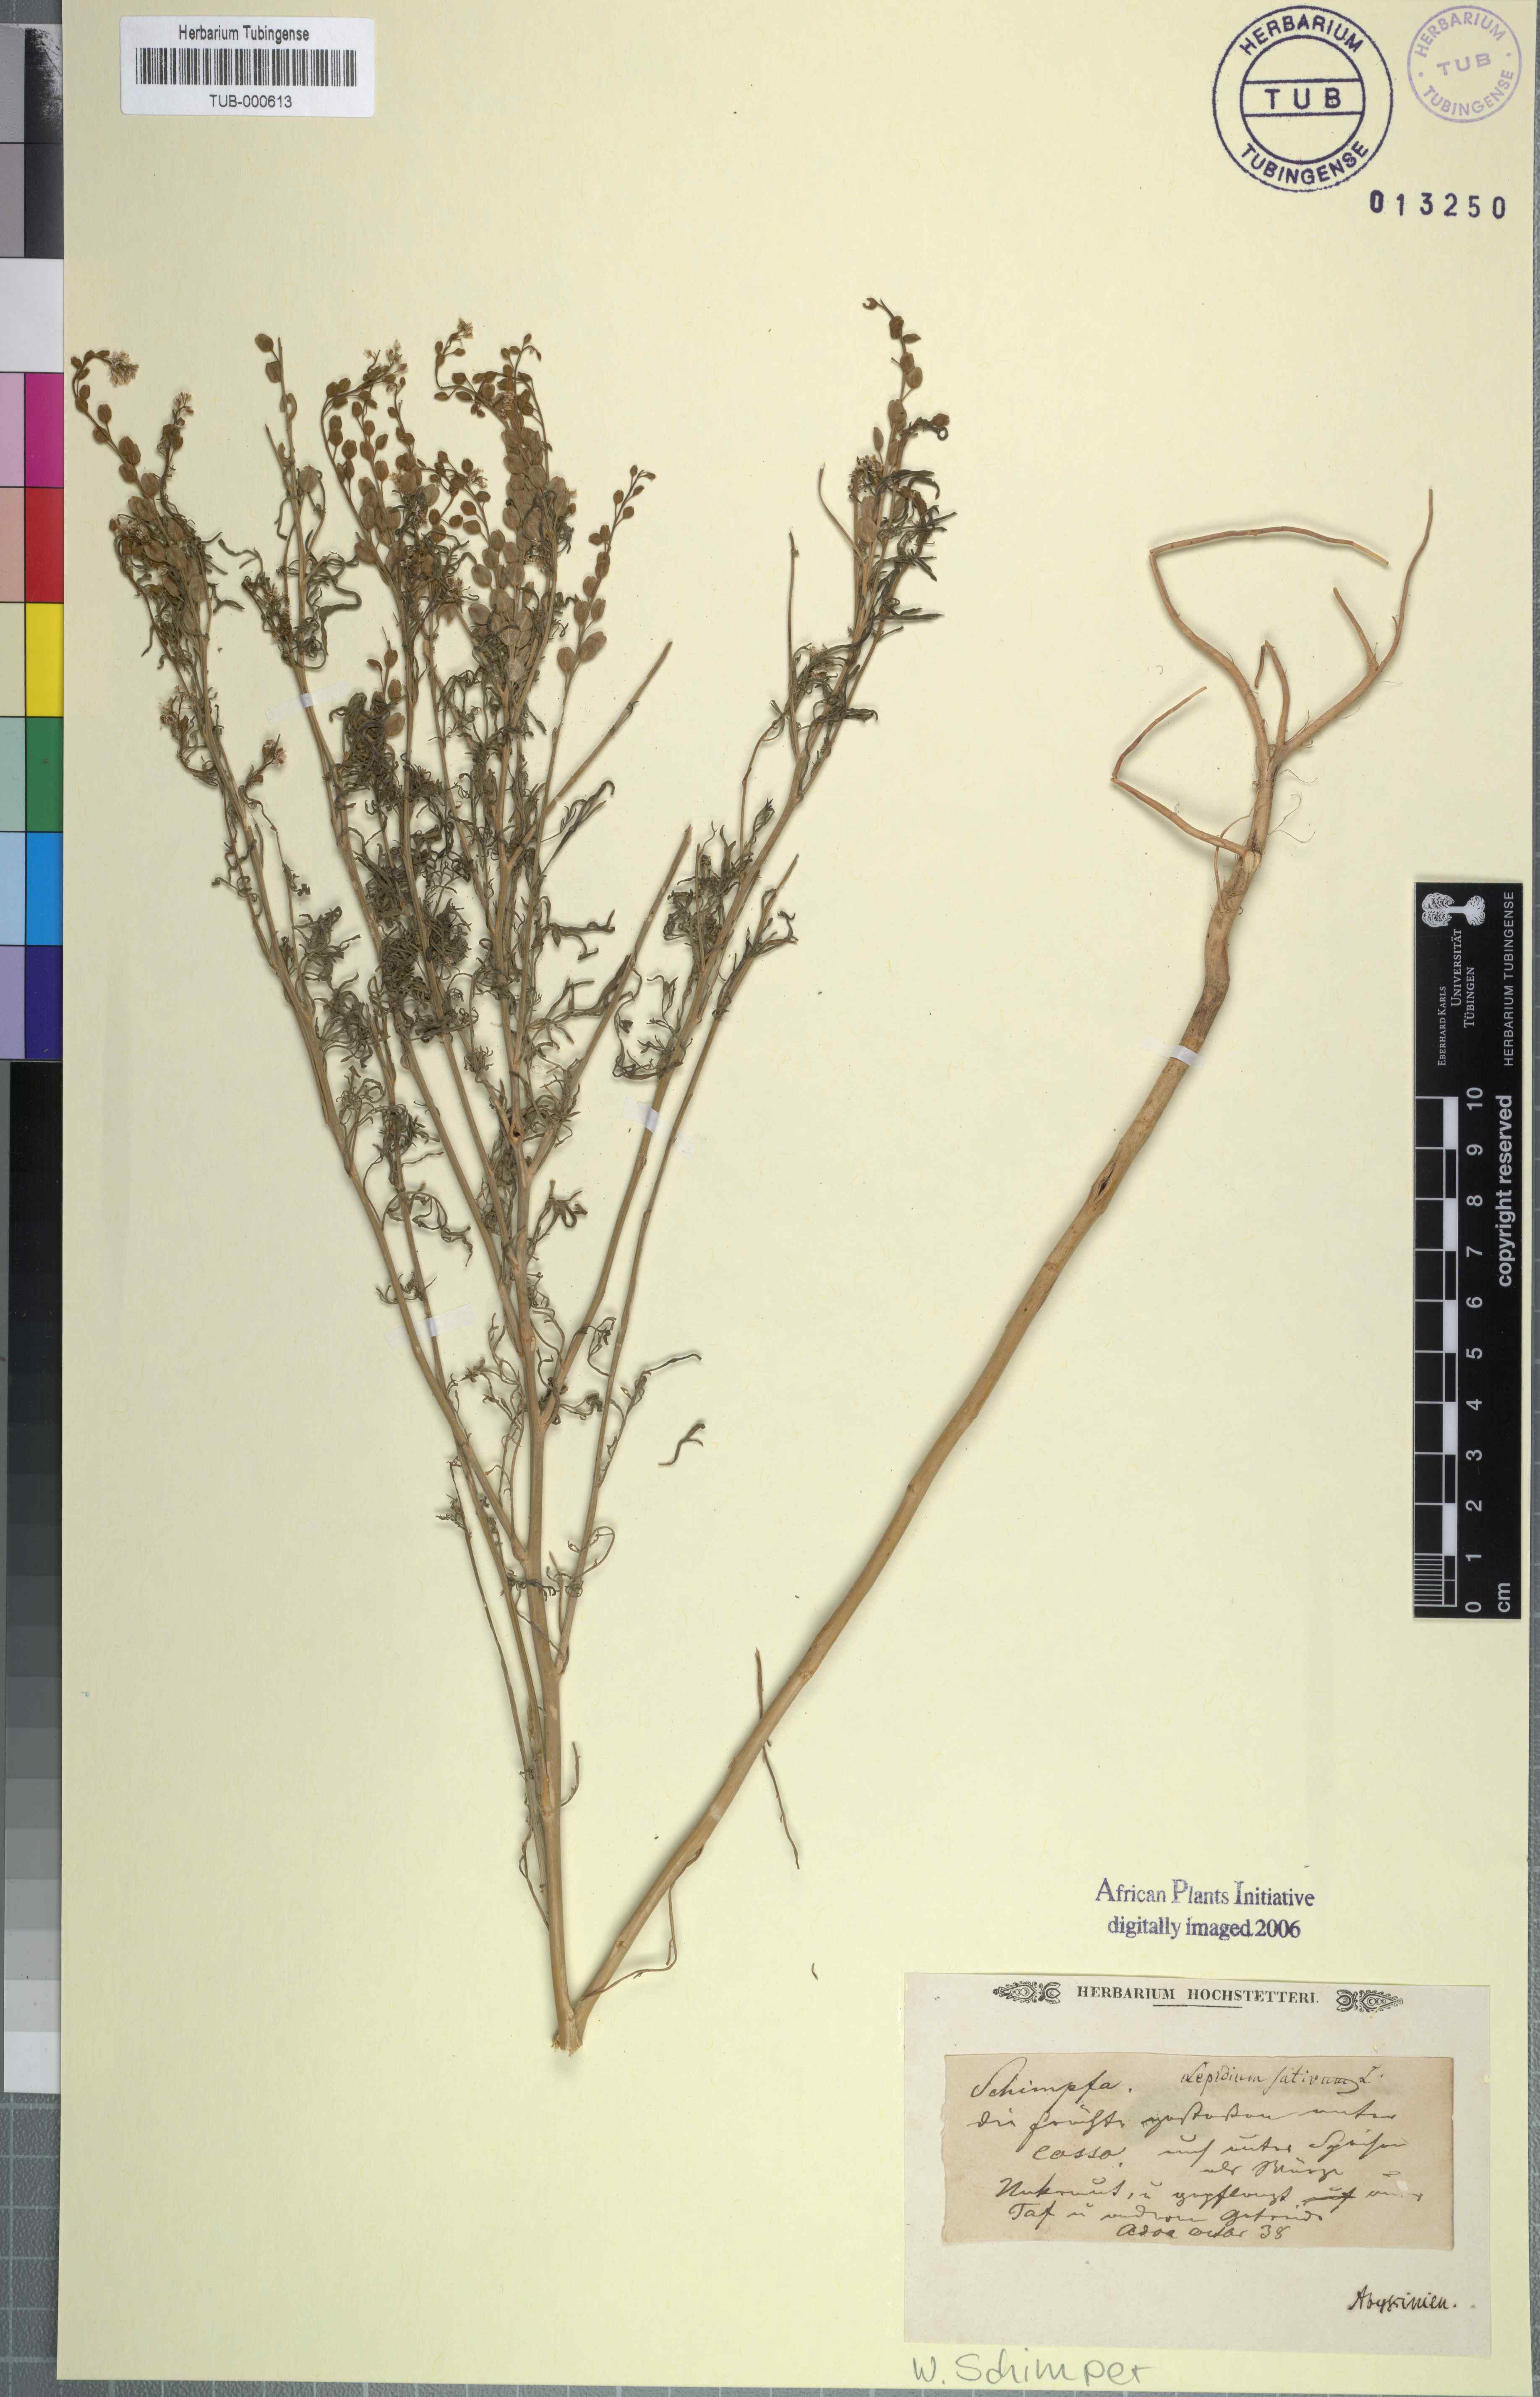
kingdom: Plantae
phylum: Tracheophyta
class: Magnoliopsida
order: Brassicales
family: Brassicaceae
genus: Lepidium
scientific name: Lepidium sativum
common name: Garden cress
